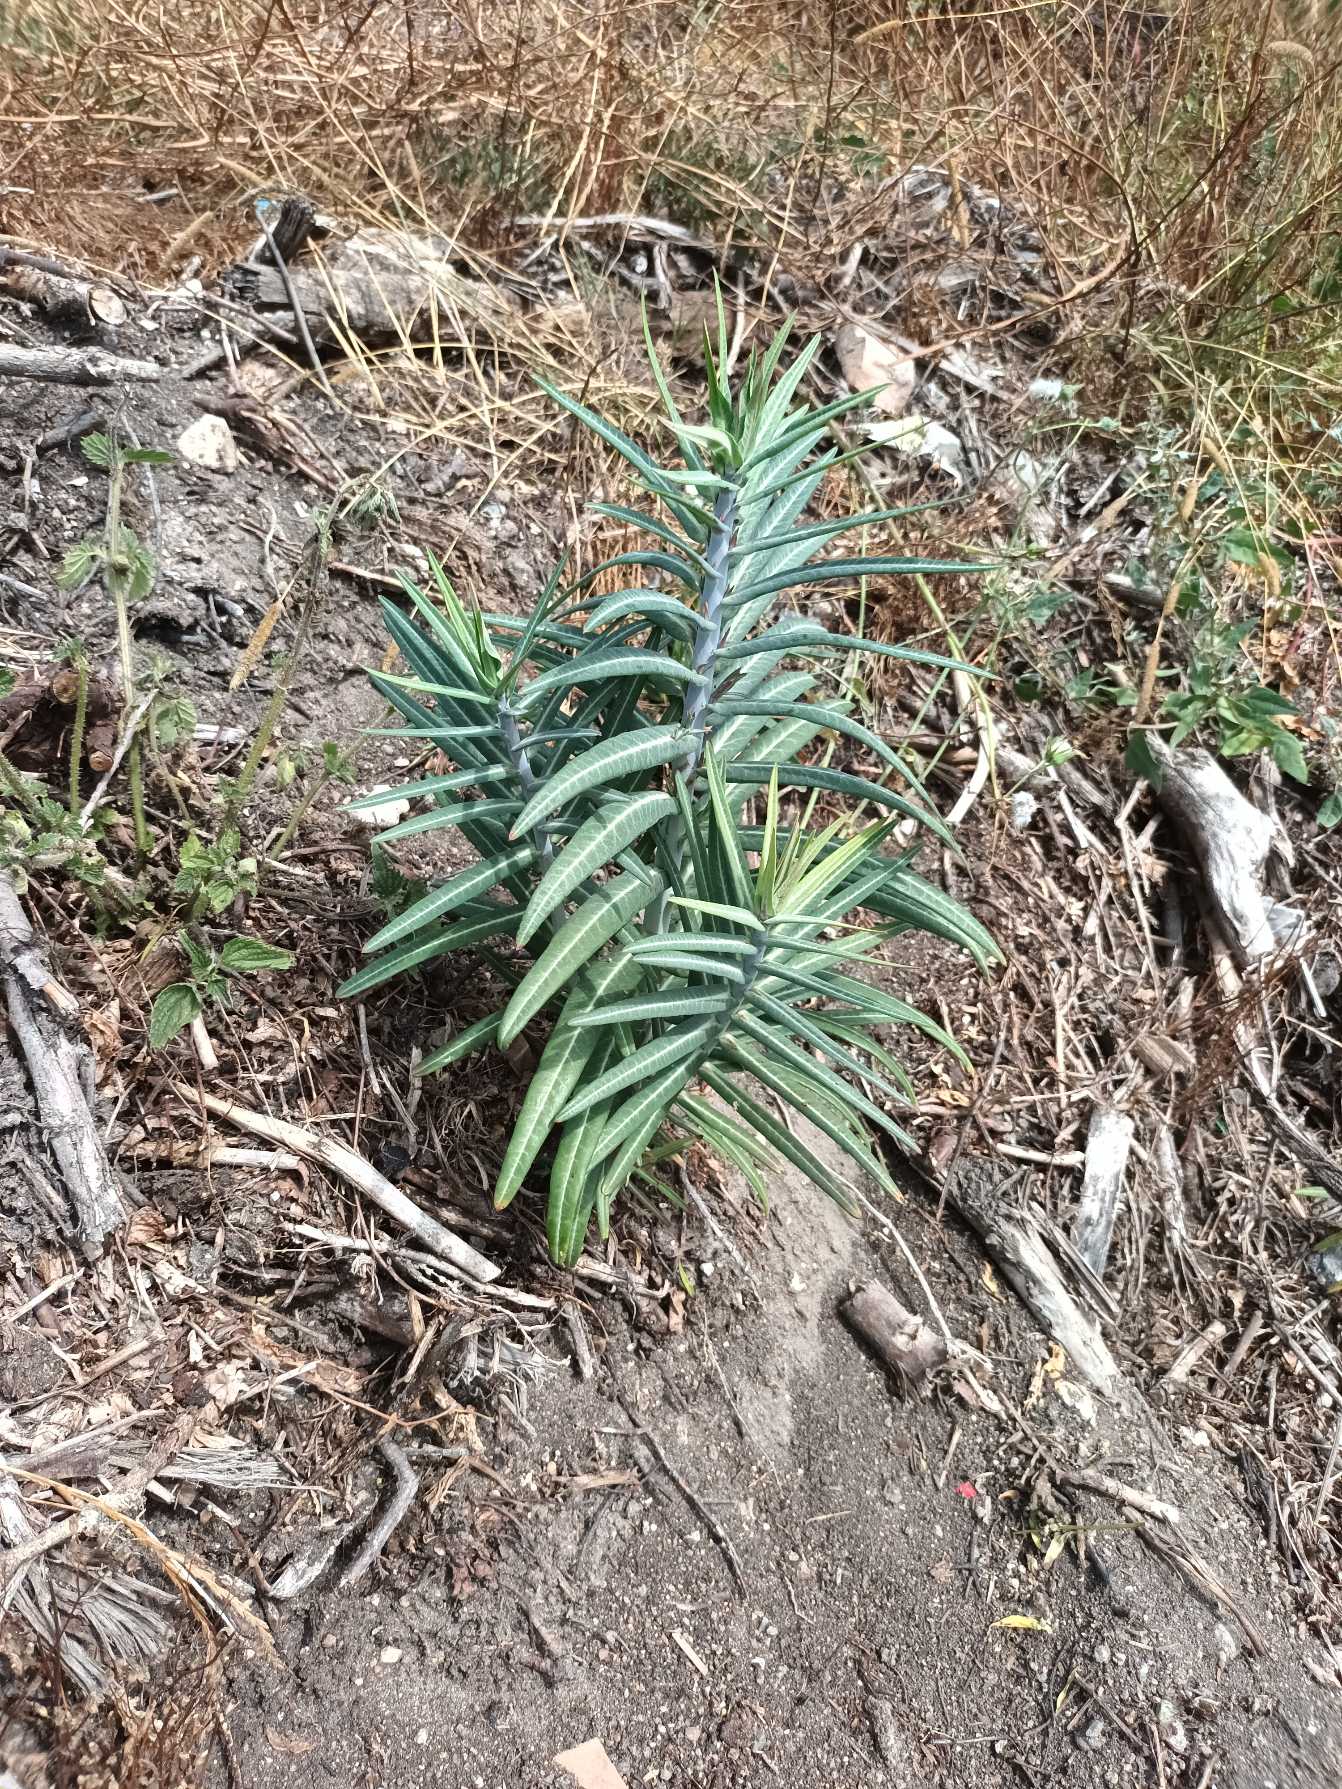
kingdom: Plantae
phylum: Tracheophyta
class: Magnoliopsida
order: Malpighiales
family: Euphorbiaceae
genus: Euphorbia
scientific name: Euphorbia lathyris
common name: Kors-vortemælk
